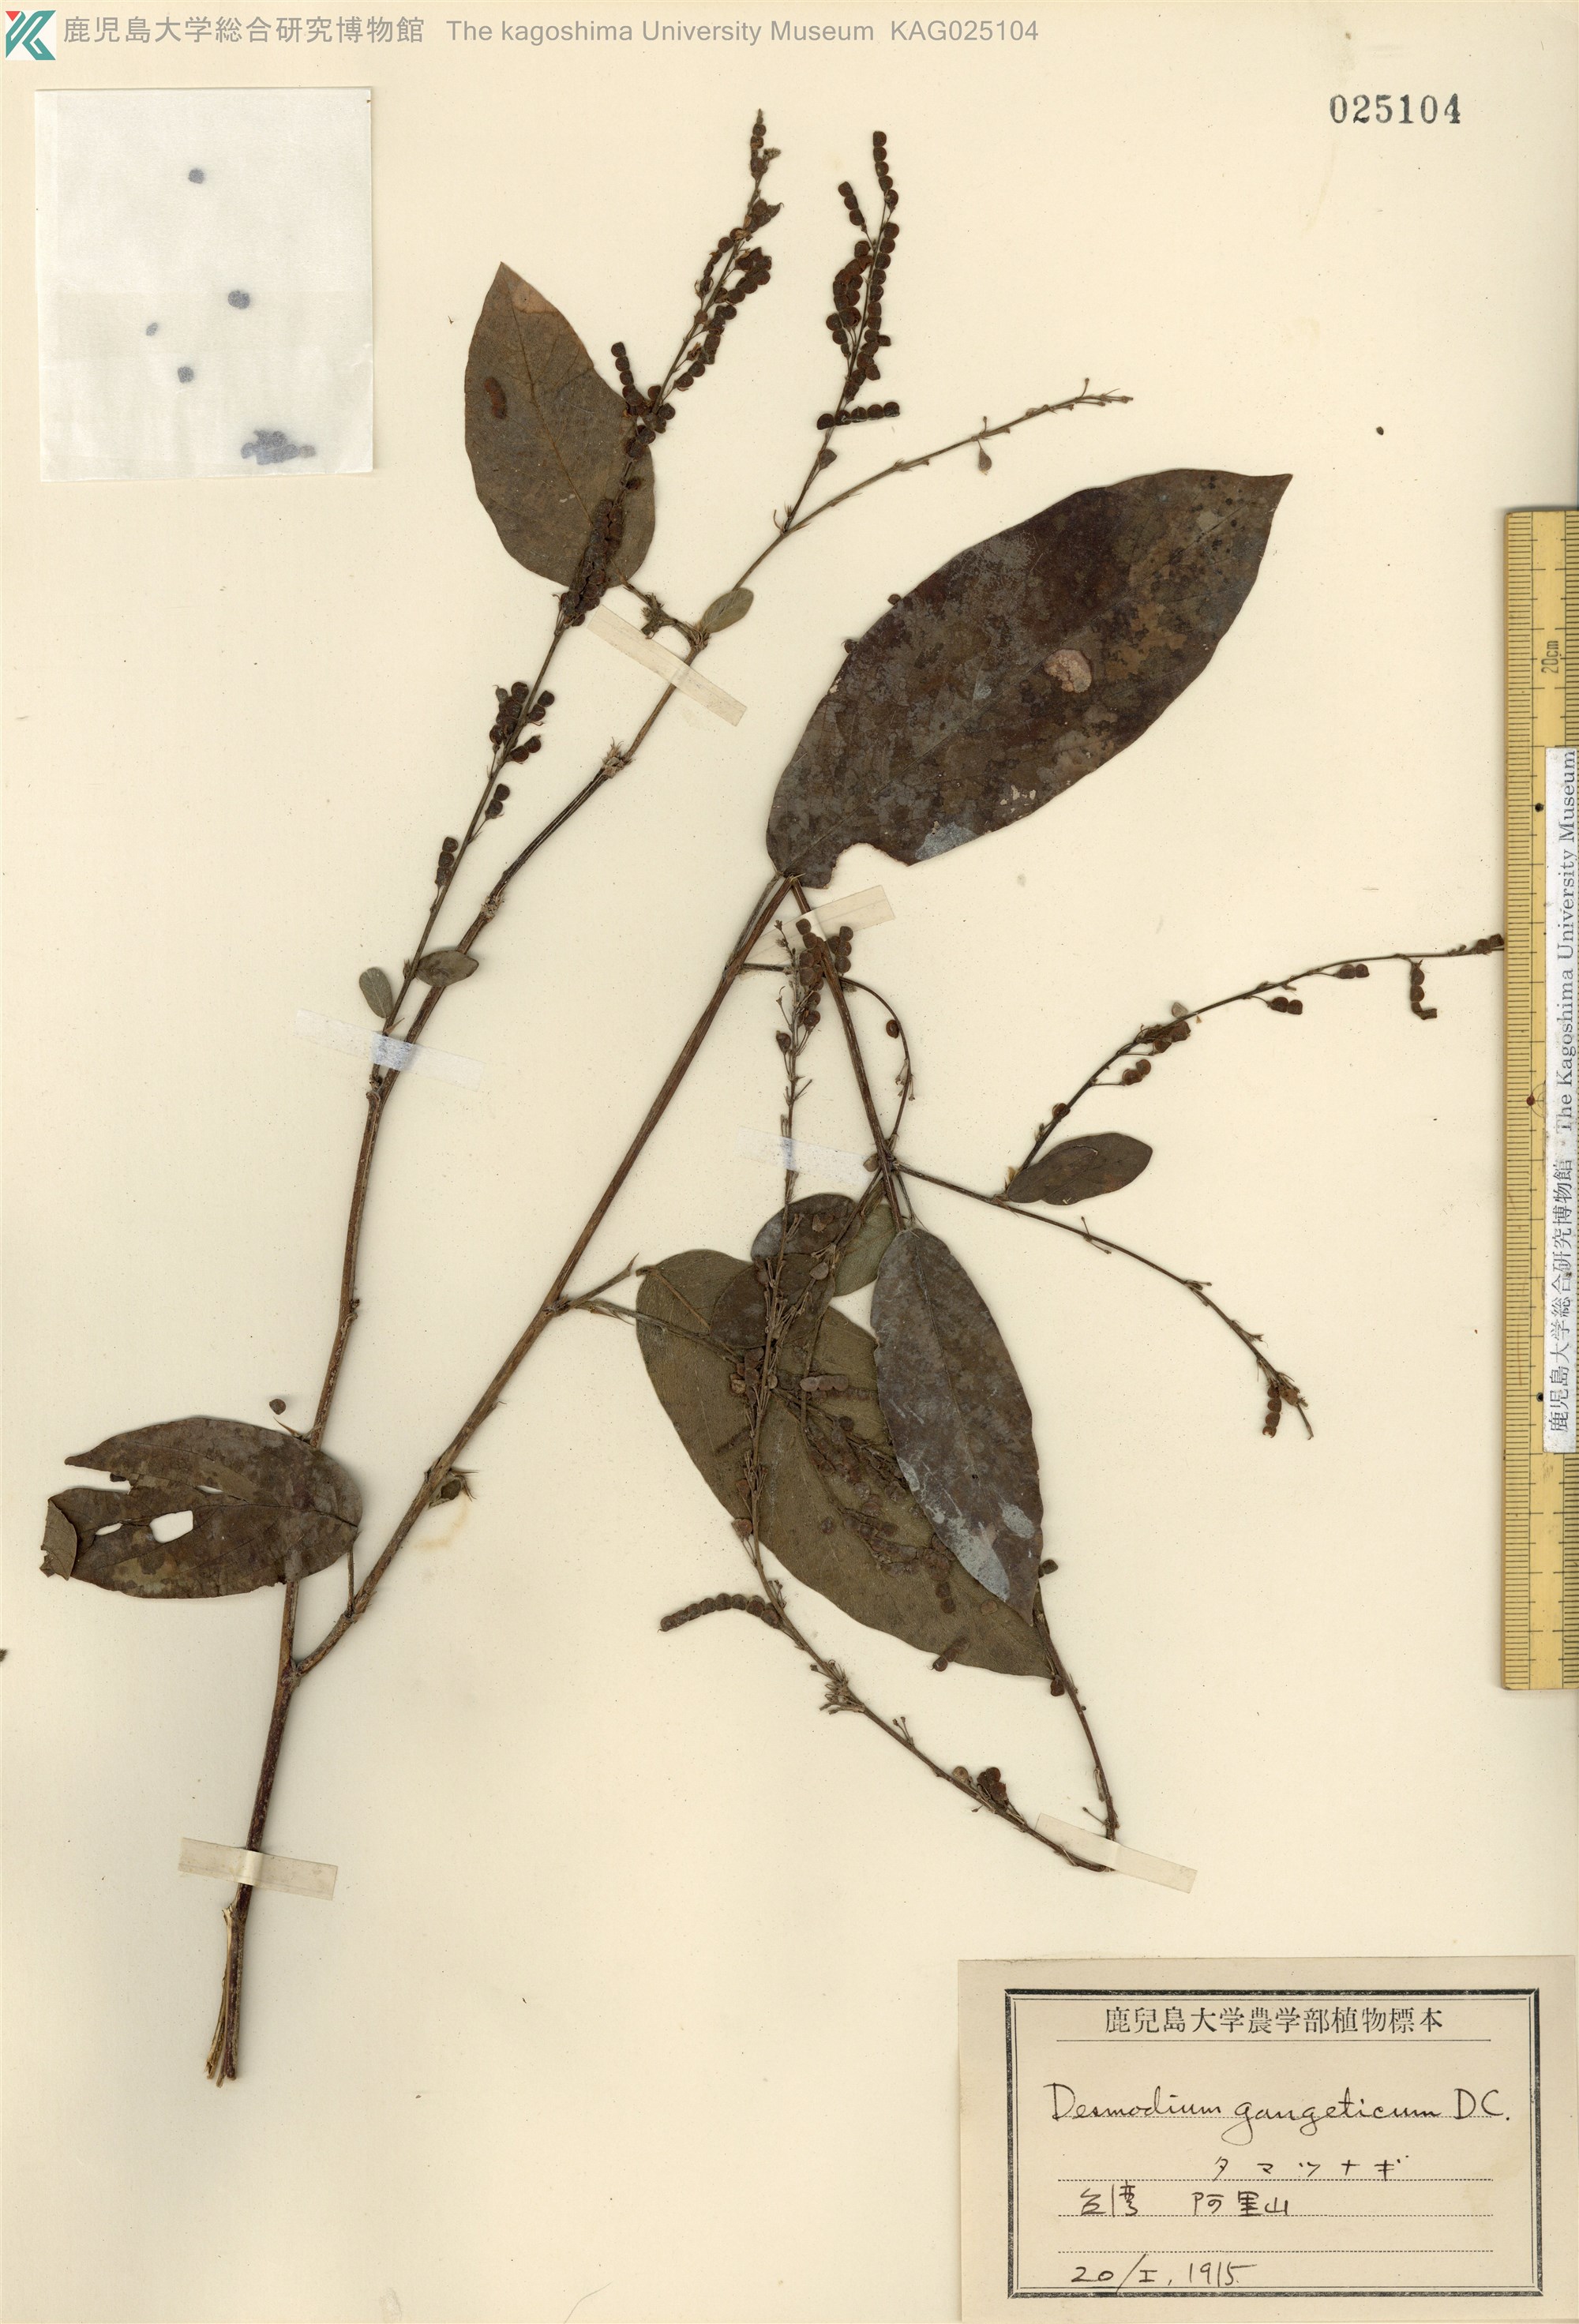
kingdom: Plantae
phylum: Tracheophyta
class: Magnoliopsida
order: Fabales
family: Fabaceae
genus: Pleurolobus
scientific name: Pleurolobus gangeticus
